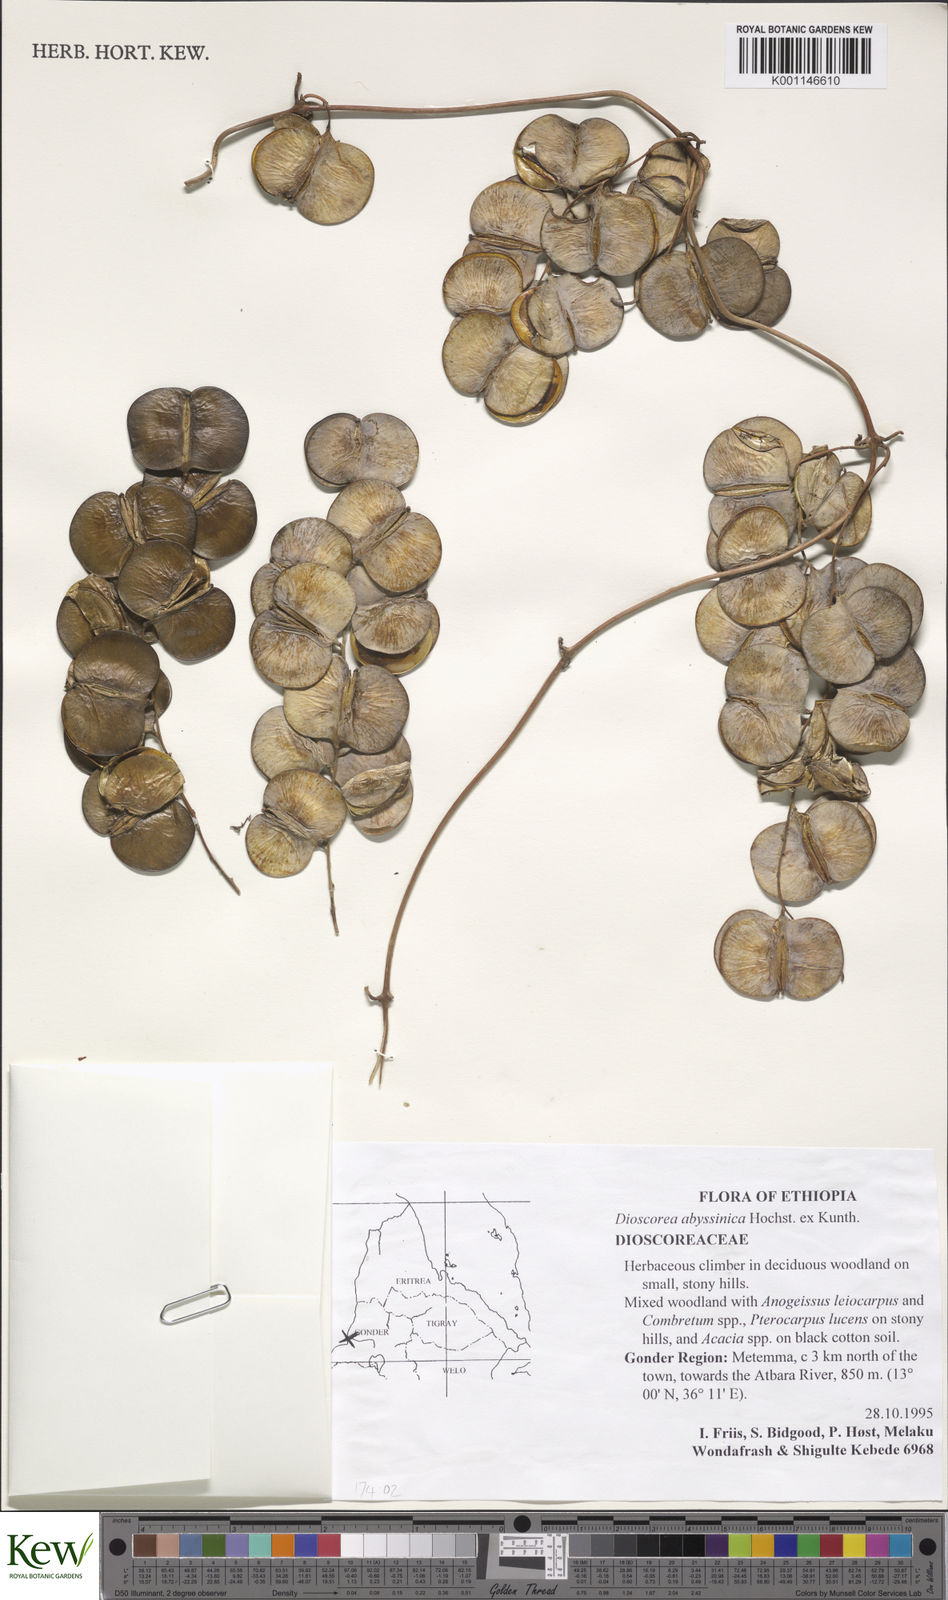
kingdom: Plantae
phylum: Tracheophyta
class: Liliopsida
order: Dioscoreales
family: Dioscoreaceae
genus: Dioscorea
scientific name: Dioscorea schimperiana
